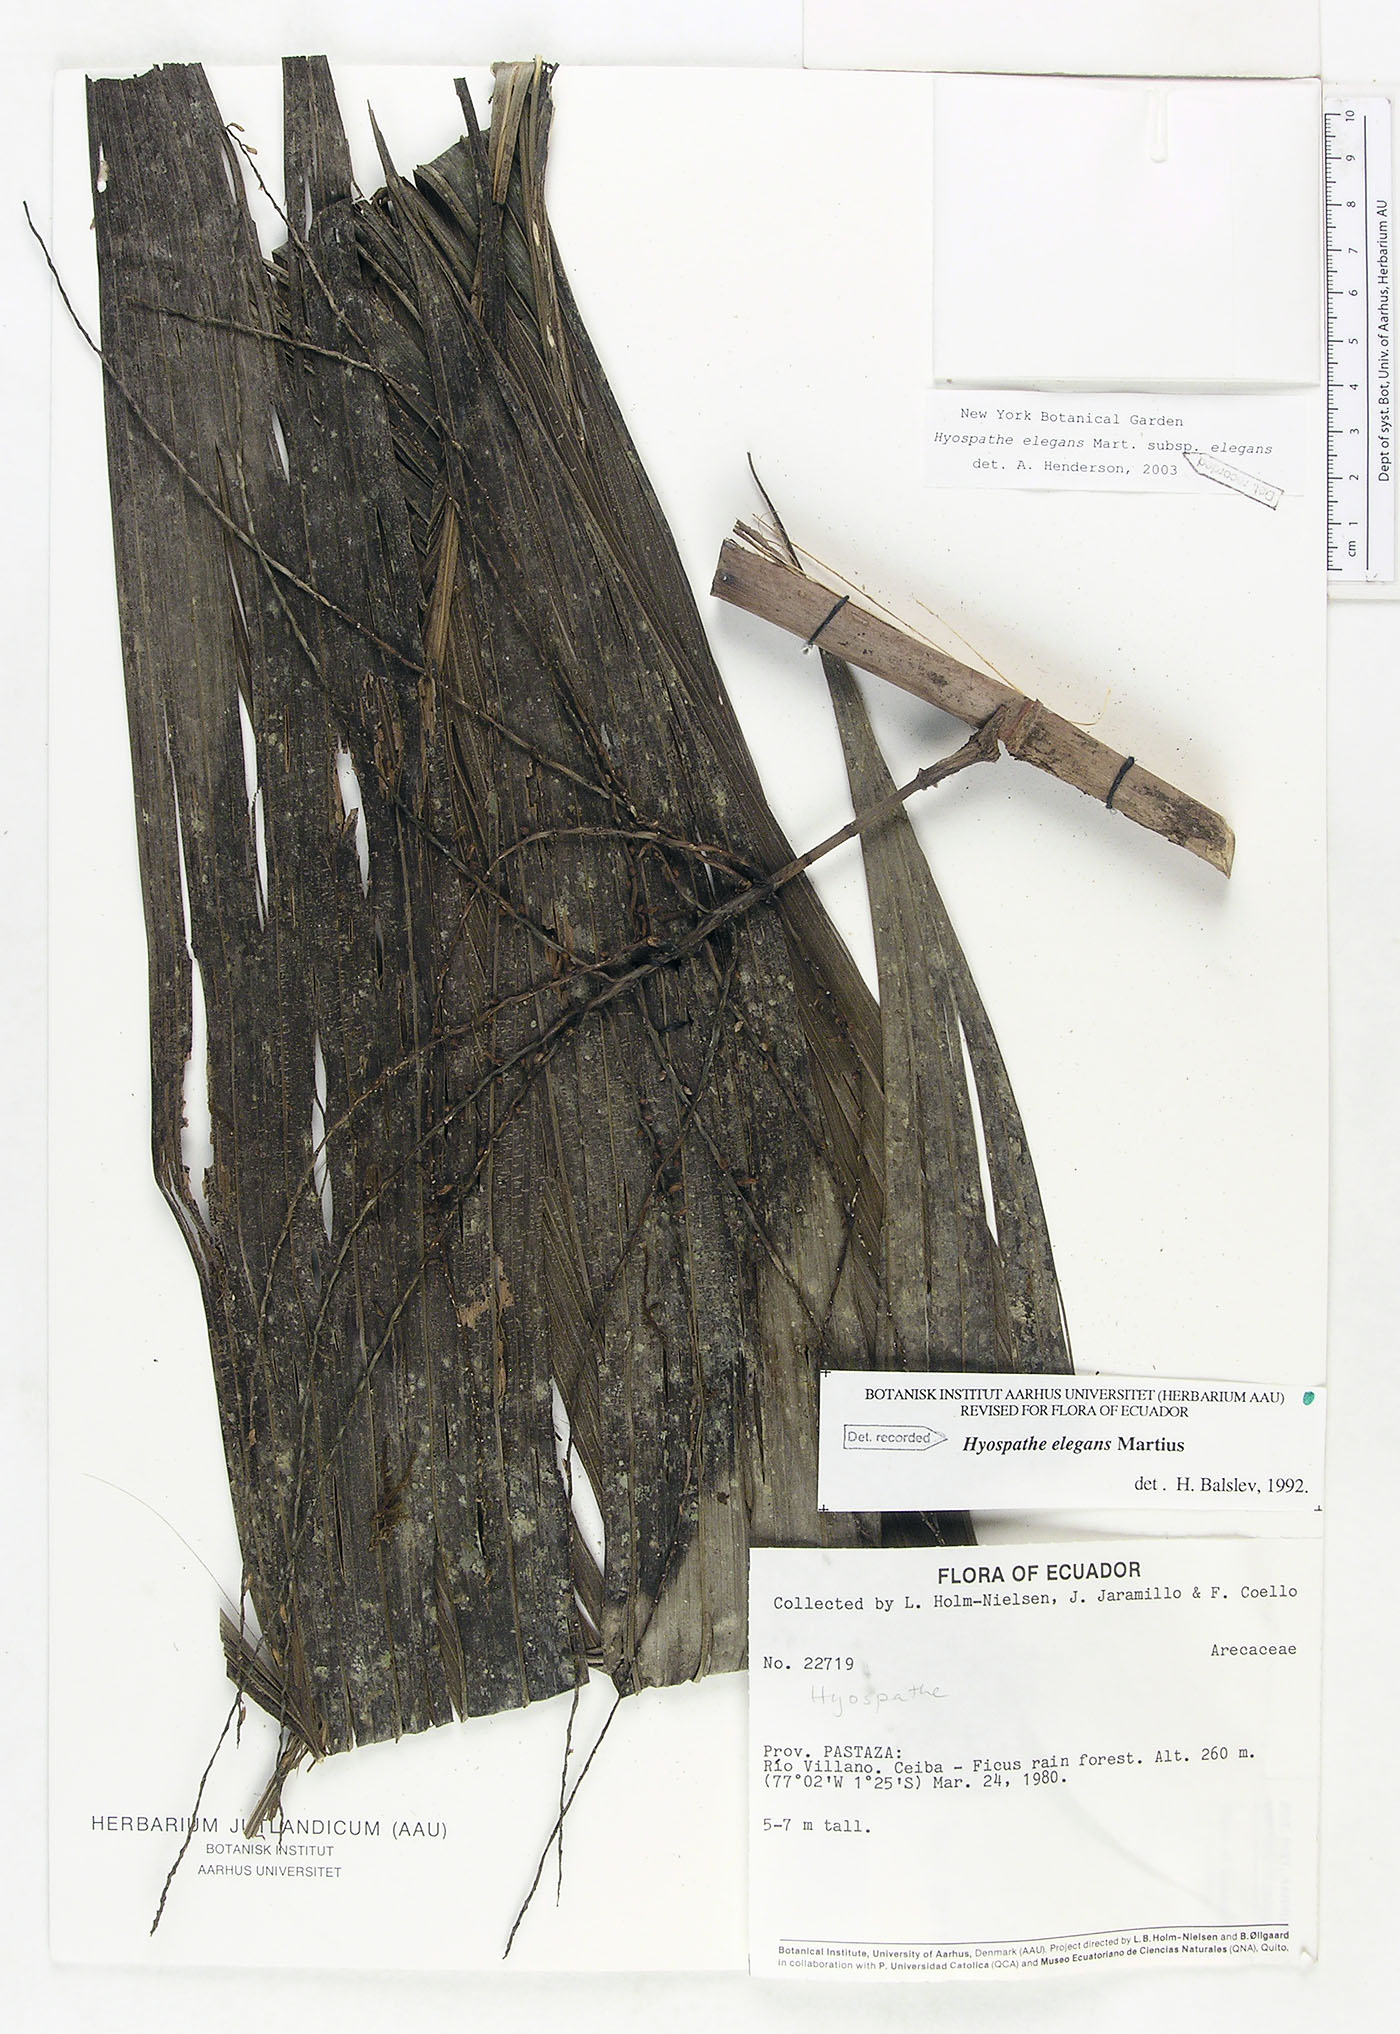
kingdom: Plantae
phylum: Tracheophyta
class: Liliopsida
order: Arecales
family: Arecaceae
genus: Hyospathe
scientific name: Hyospathe elegans
